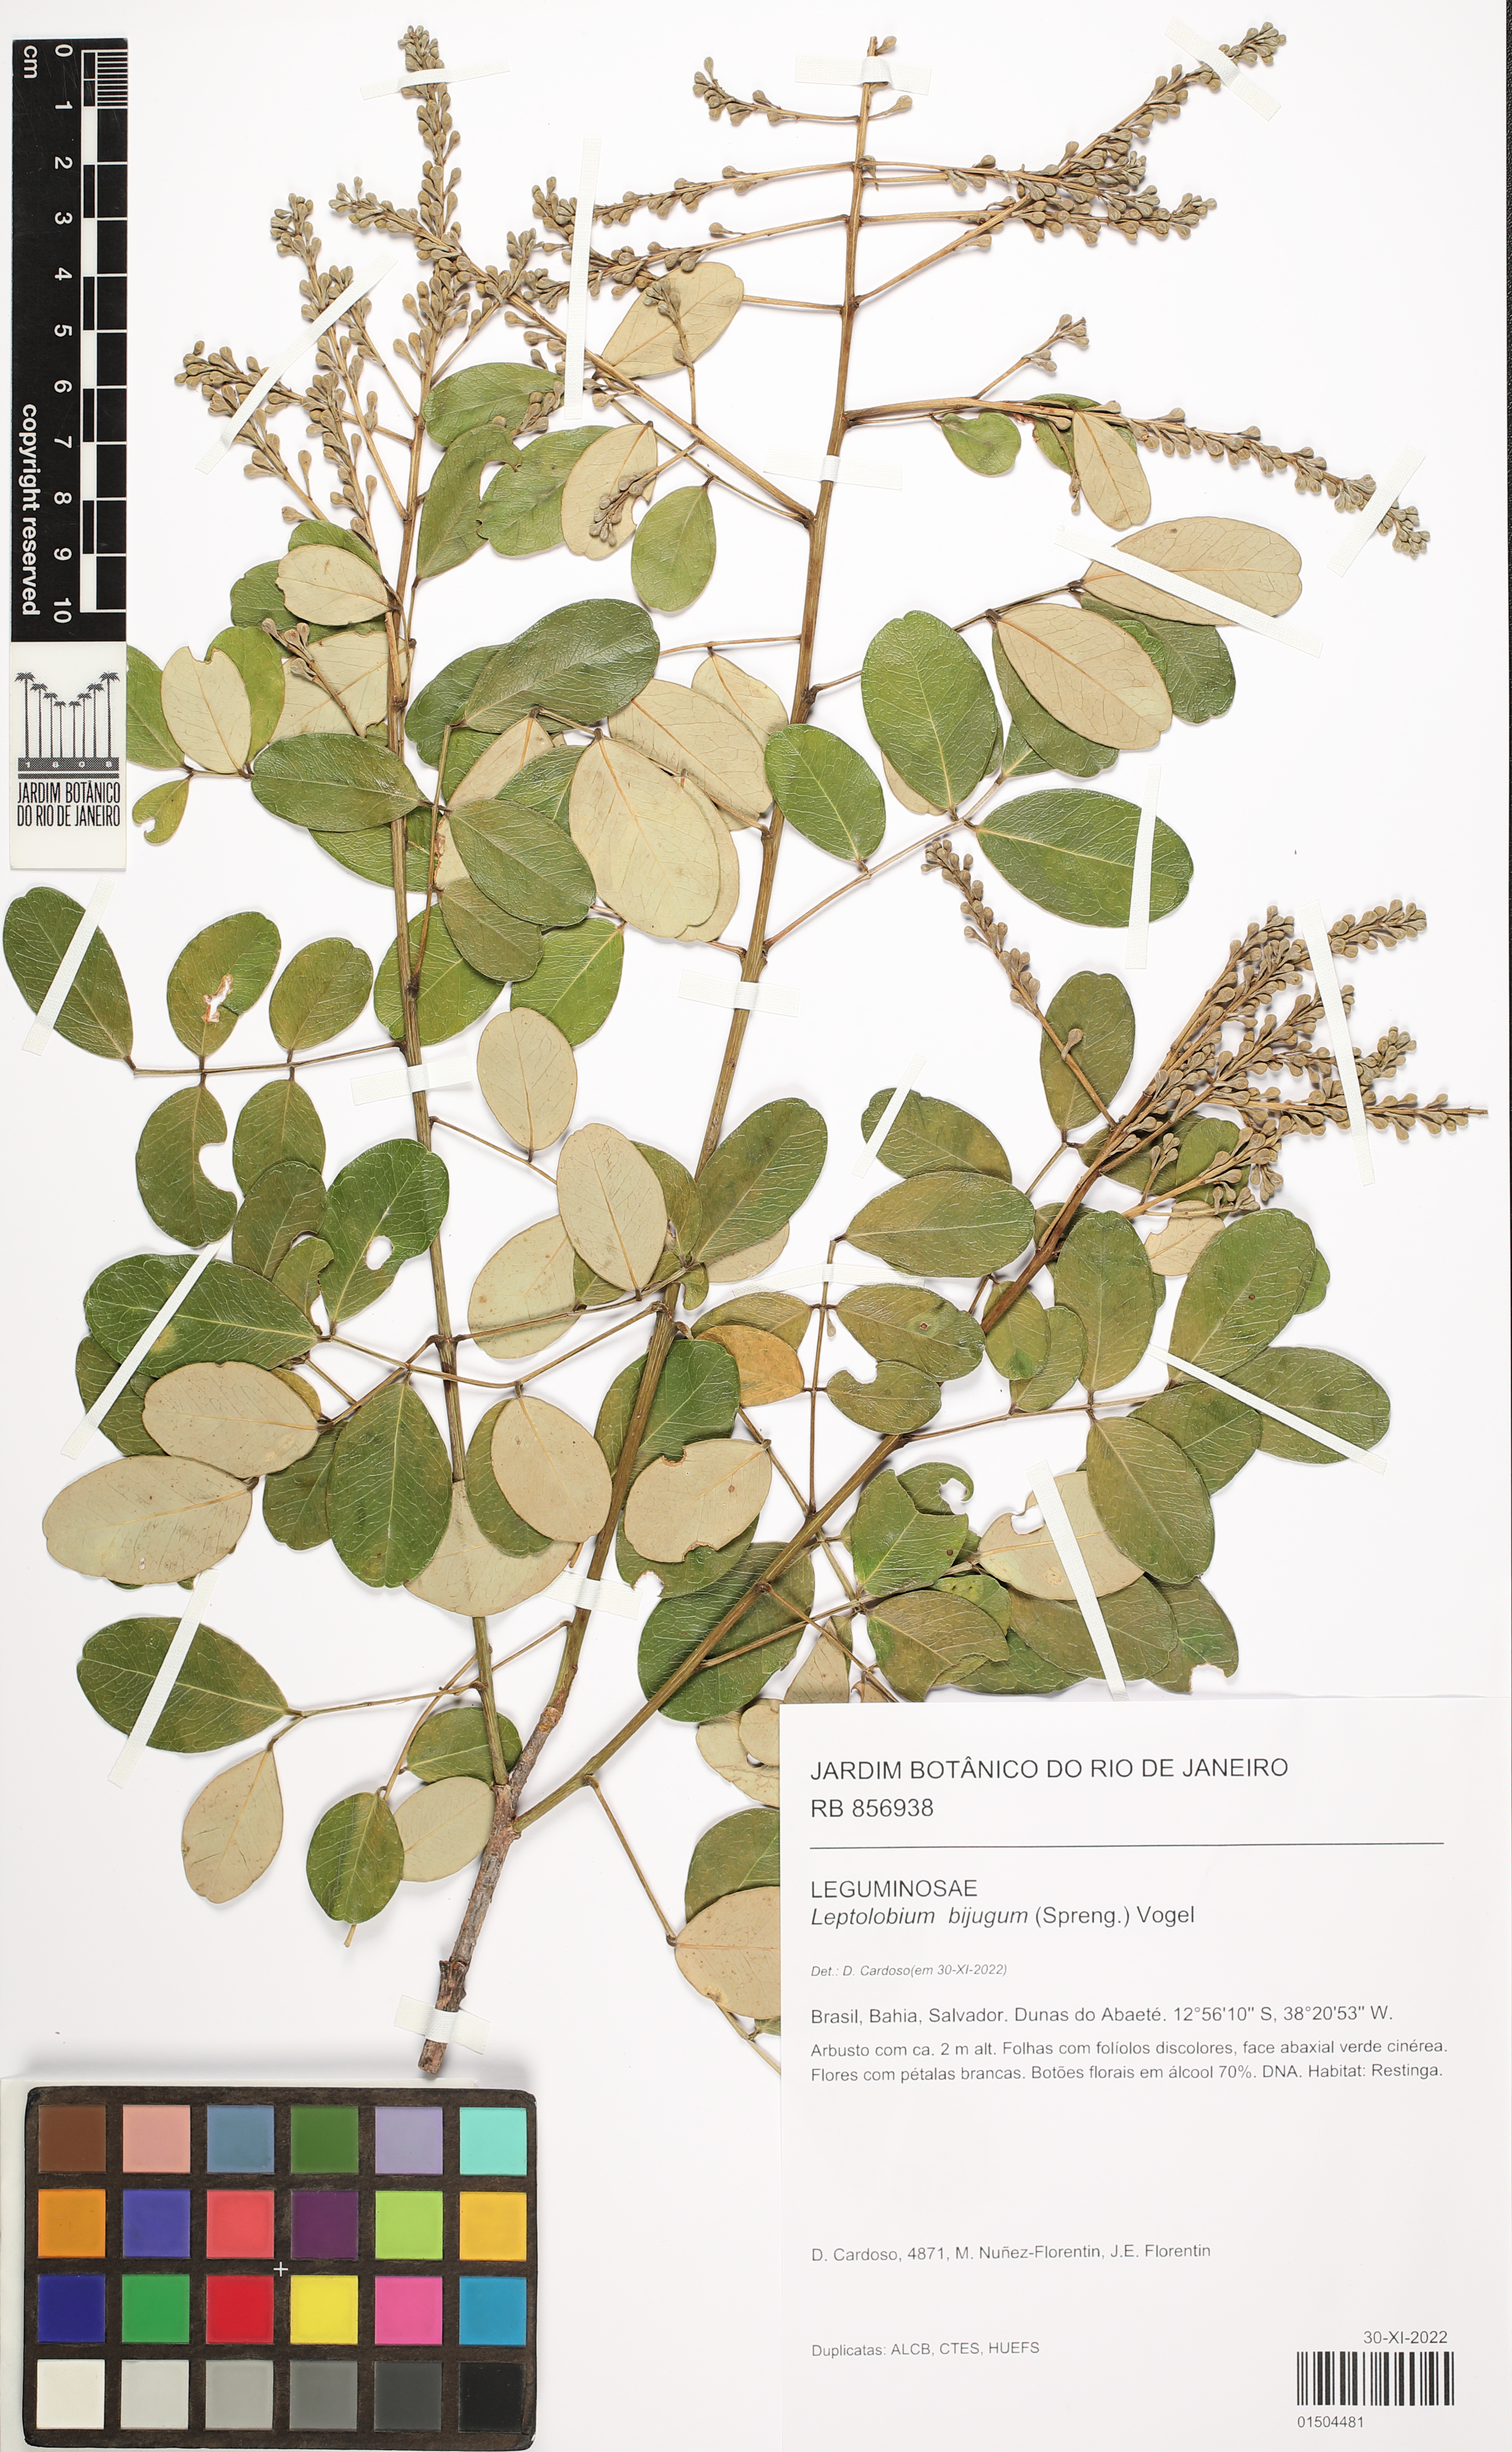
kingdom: Plantae
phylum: Tracheophyta
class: Magnoliopsida
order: Fabales
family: Fabaceae
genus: Leptolobium
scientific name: Leptolobium bijugum
